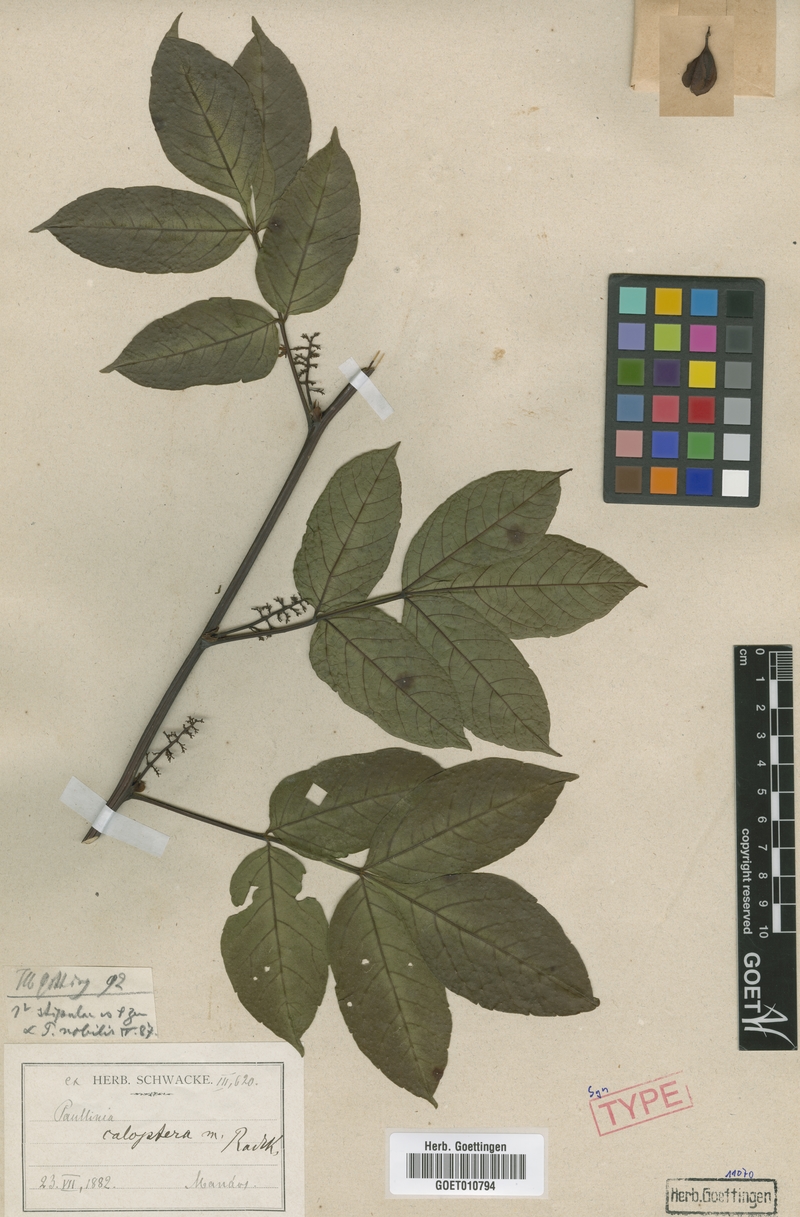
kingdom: Plantae
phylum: Tracheophyta
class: Magnoliopsida
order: Sapindales
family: Sapindaceae
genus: Paullinia
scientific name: Paullinia caloptera
